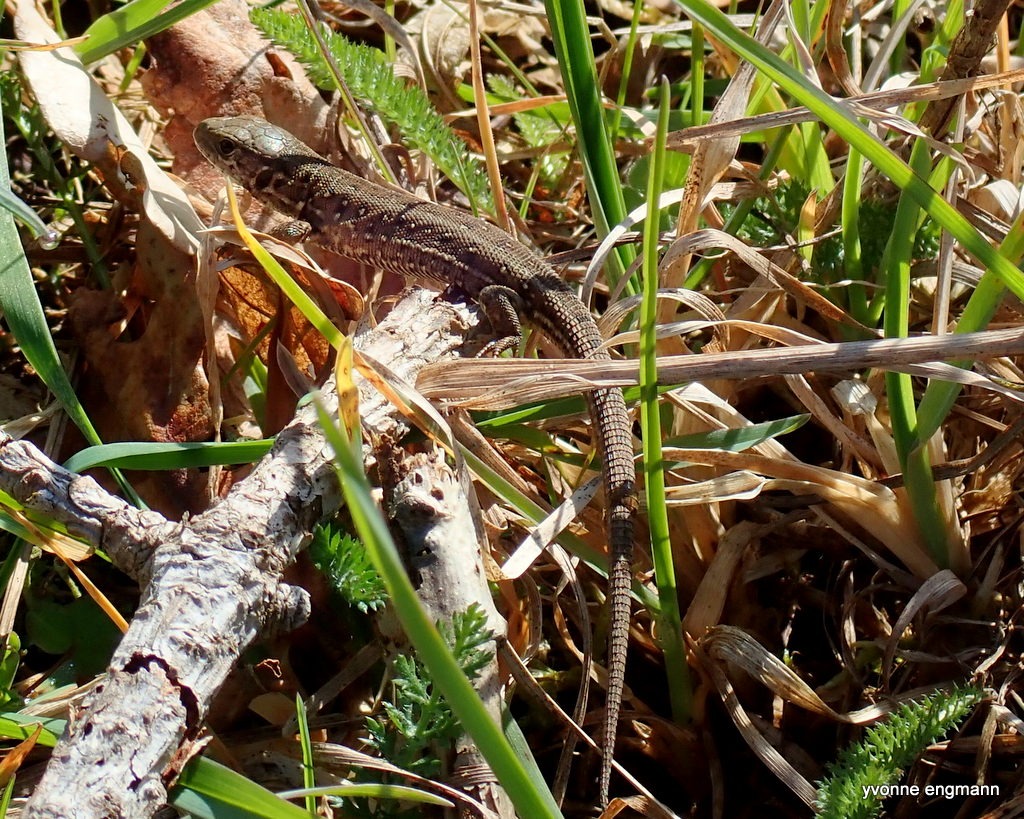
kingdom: Animalia
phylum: Chordata
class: Squamata
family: Lacertidae
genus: Lacerta
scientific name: Lacerta agilis
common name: Markfirben
